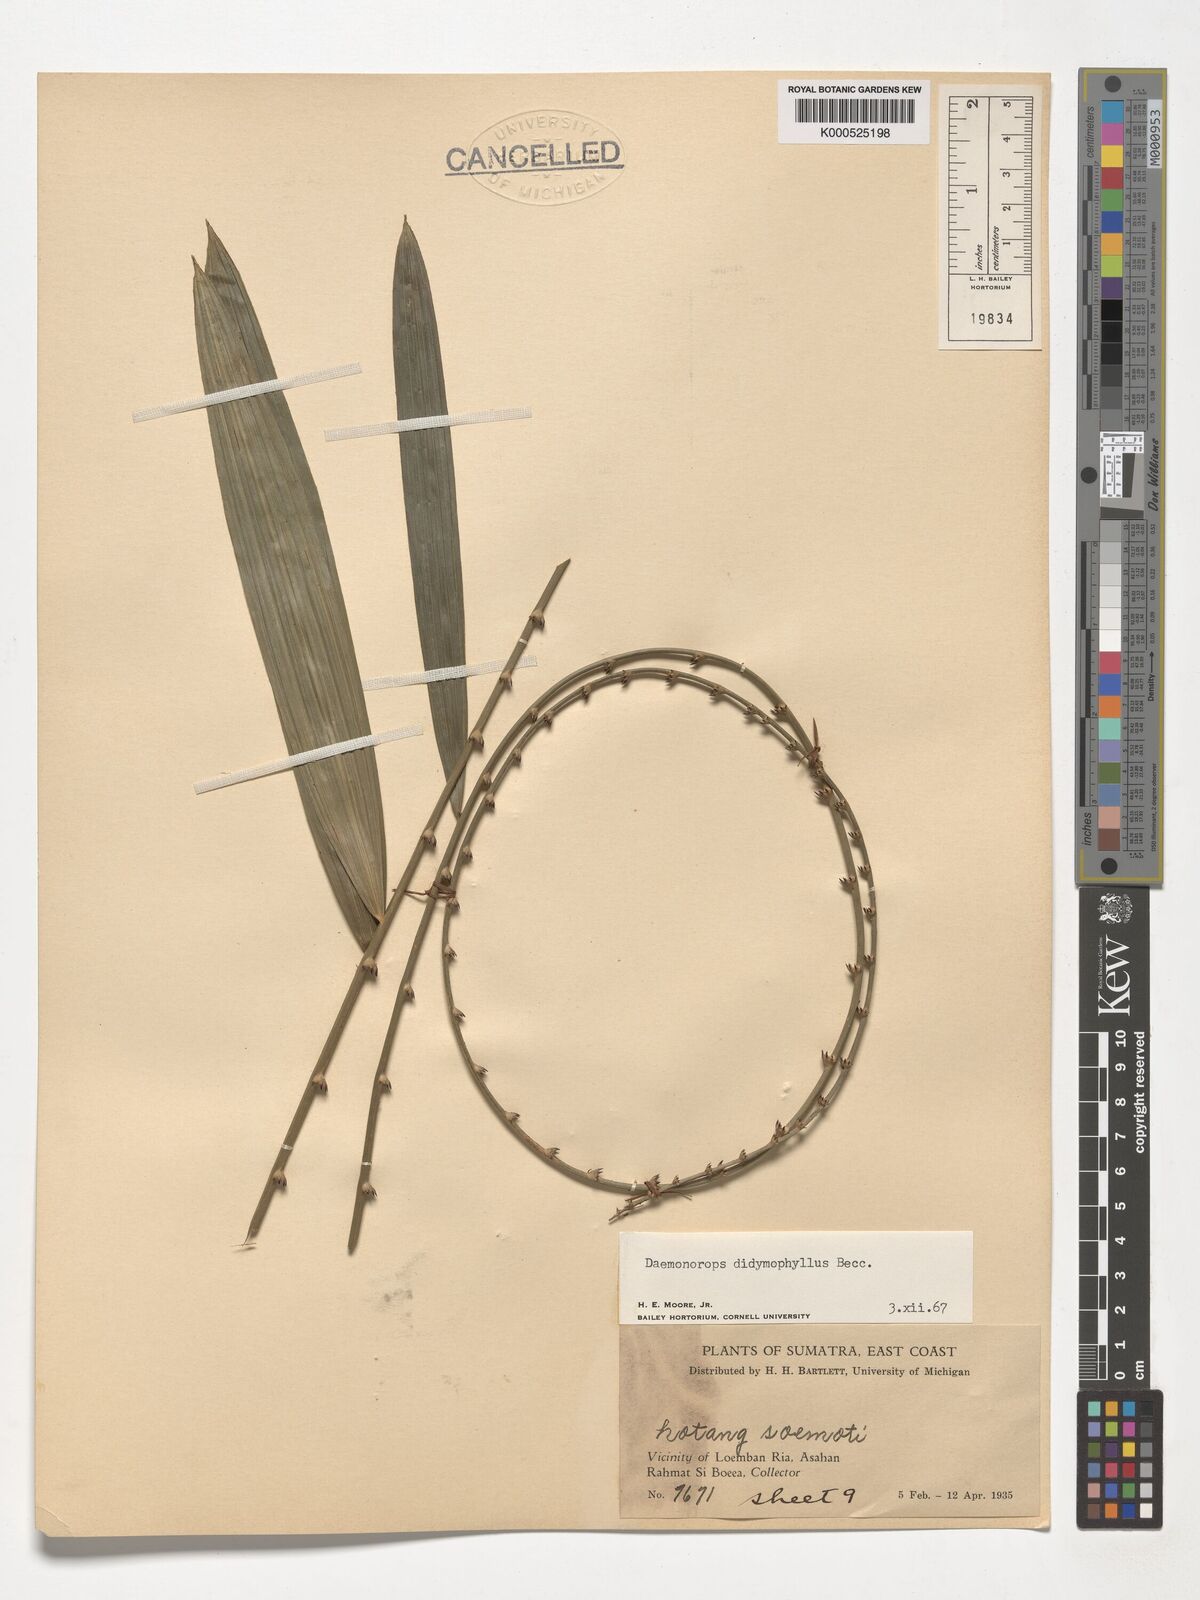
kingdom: Plantae
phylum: Tracheophyta
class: Liliopsida
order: Arecales
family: Arecaceae
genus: Calamus
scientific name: Calamus gracilipes
